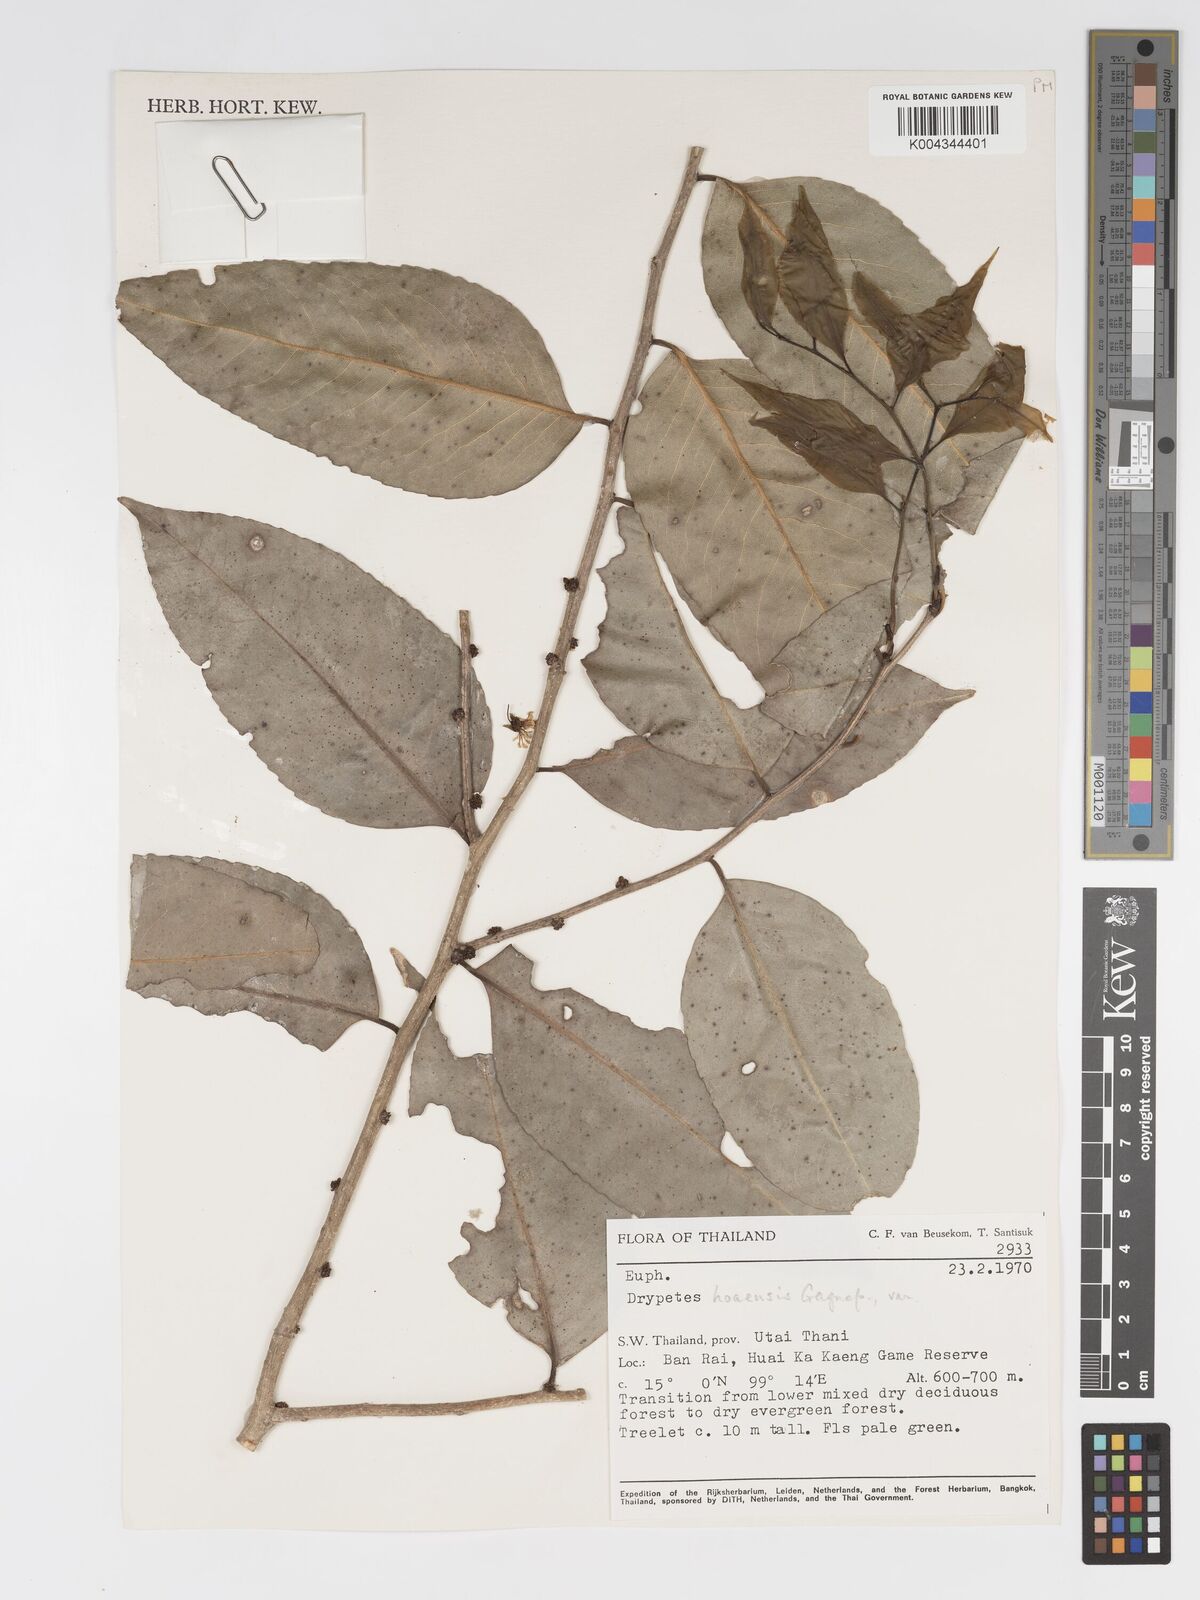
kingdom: Plantae
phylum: Tracheophyta
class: Magnoliopsida
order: Malpighiales
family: Putranjivaceae
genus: Drypetes
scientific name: Drypetes hoaensis
